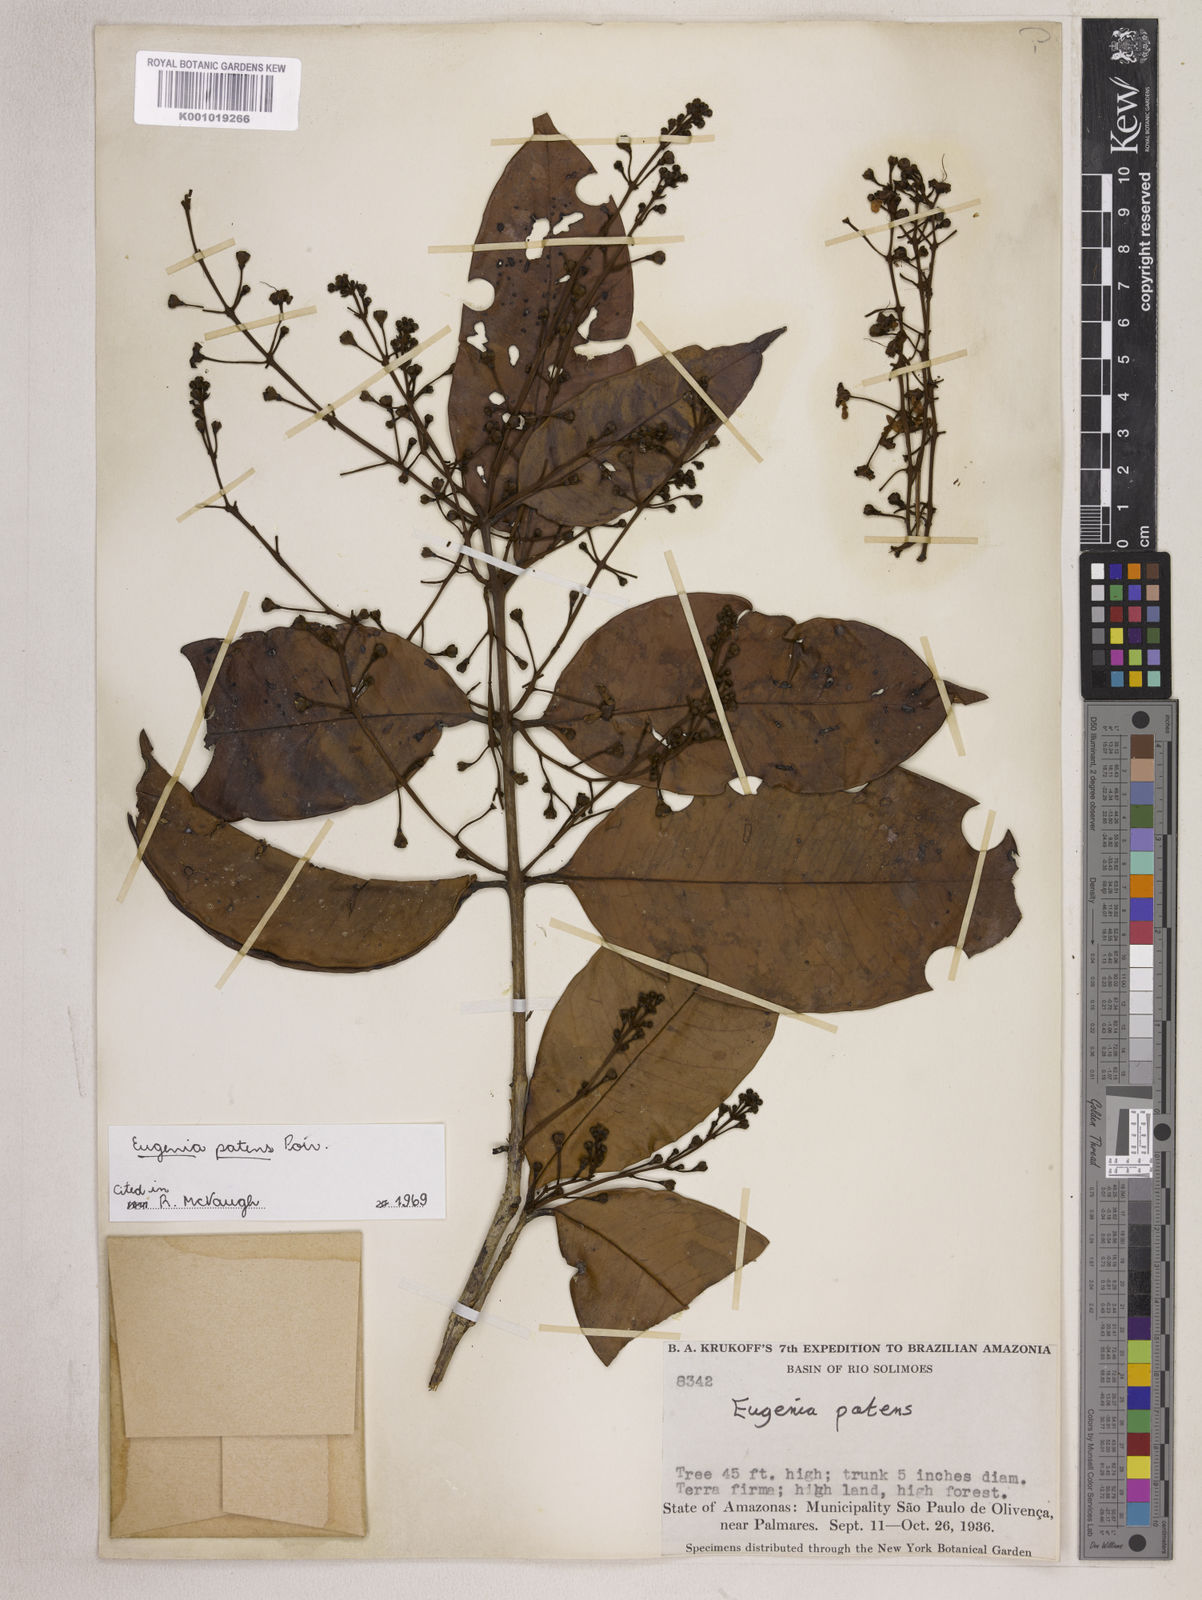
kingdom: Plantae
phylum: Tracheophyta
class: Magnoliopsida
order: Myrtales
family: Myrtaceae
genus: Eugenia
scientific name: Eugenia patens
